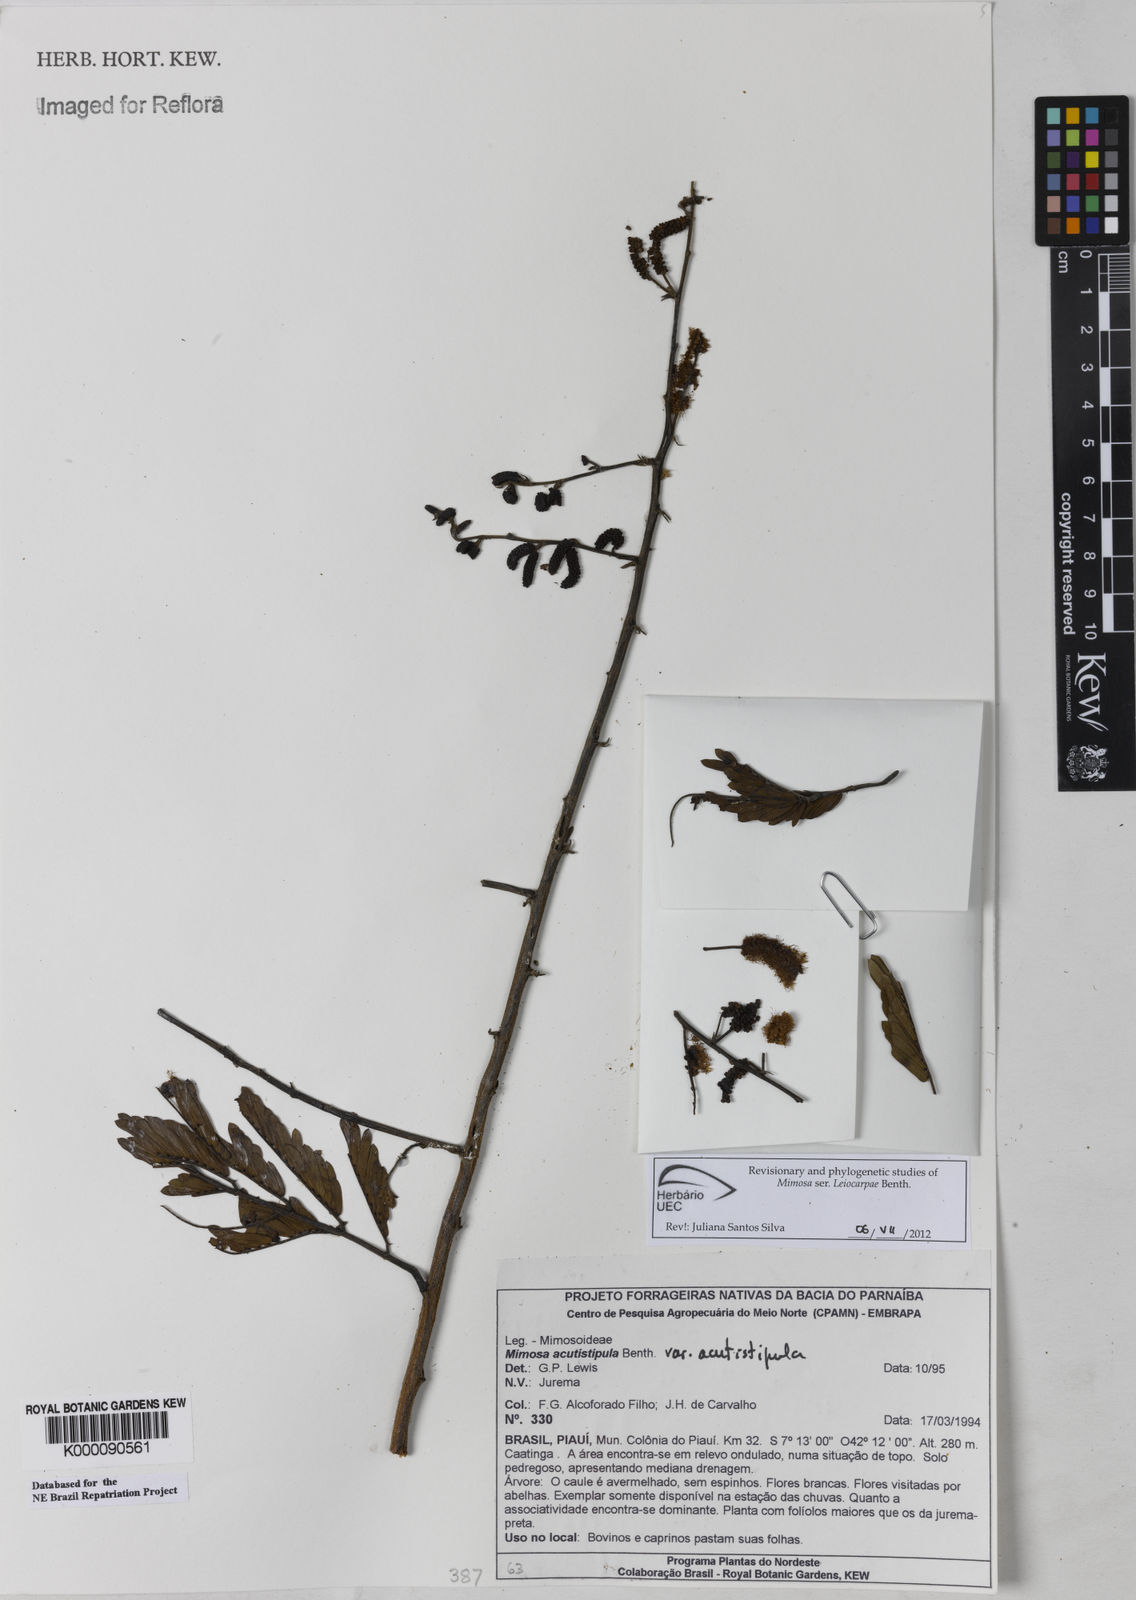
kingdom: Plantae
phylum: Tracheophyta
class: Magnoliopsida
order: Fabales
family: Fabaceae
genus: Mimosa
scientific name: Mimosa acutistipula
